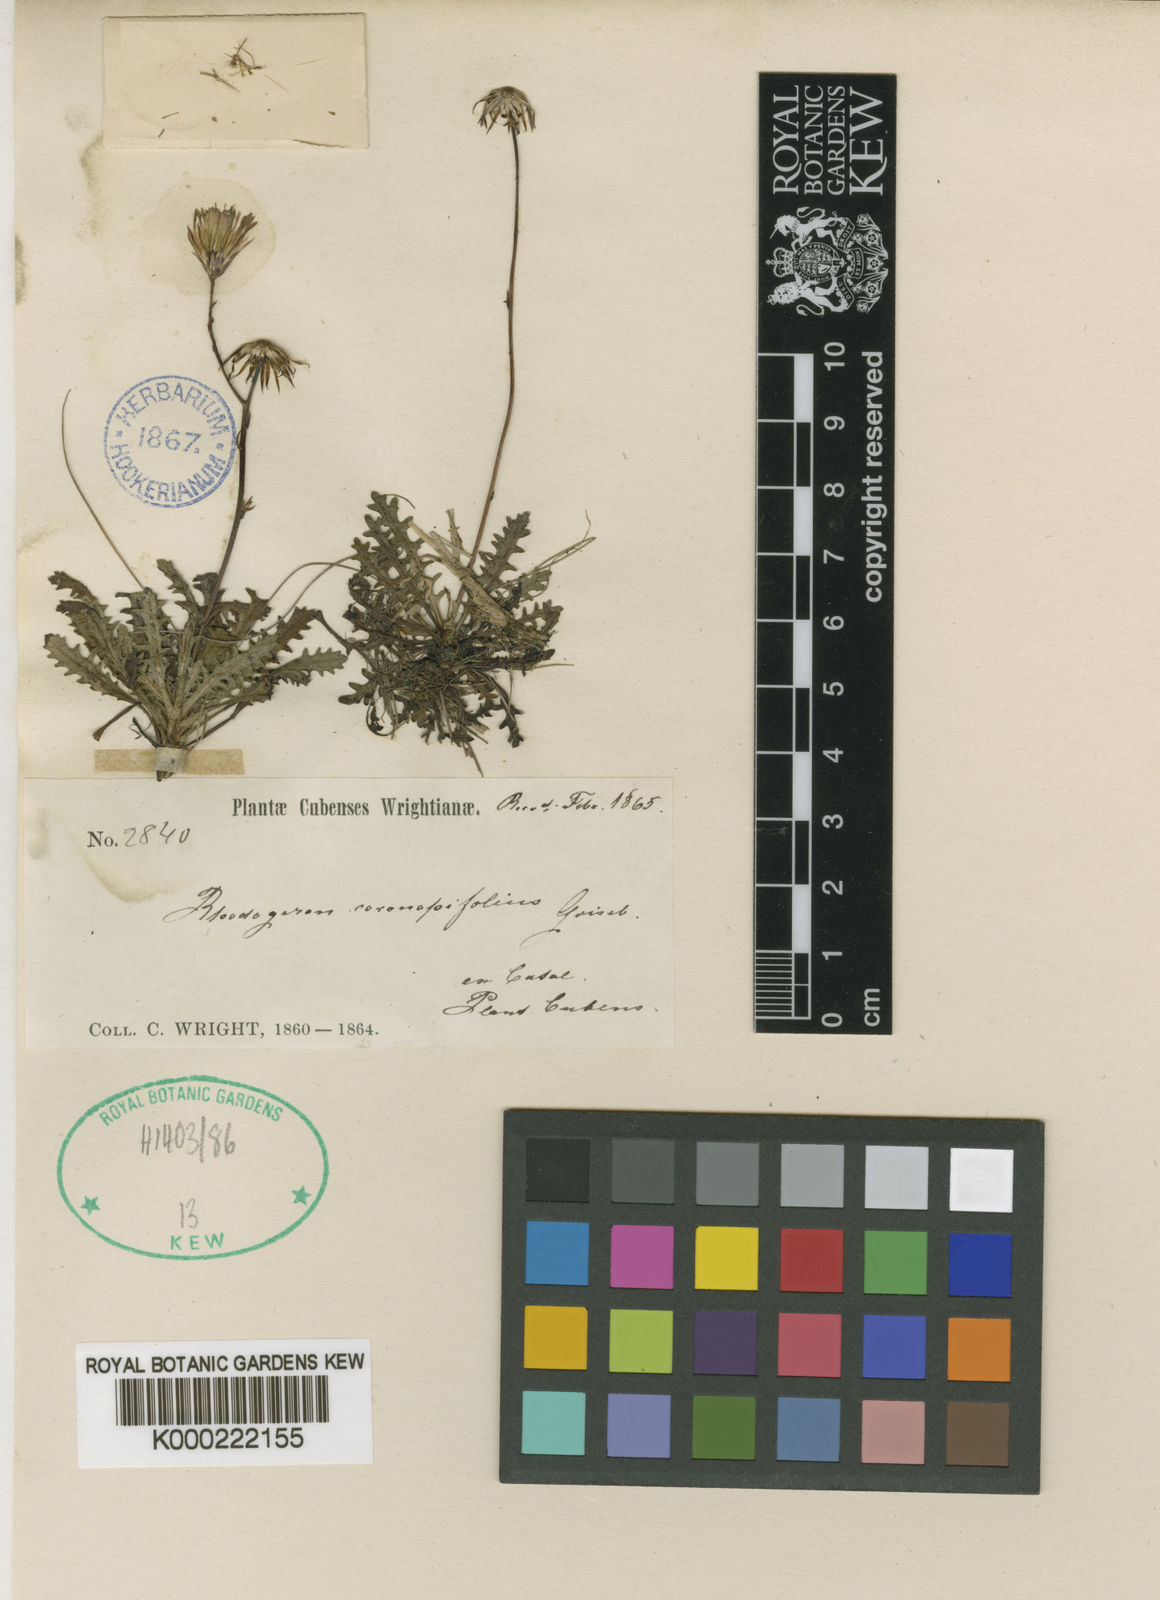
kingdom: Plantae
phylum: Tracheophyta
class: Magnoliopsida
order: Asterales
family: Asteraceae
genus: Sachsia
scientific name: Sachsia coronopifolia
